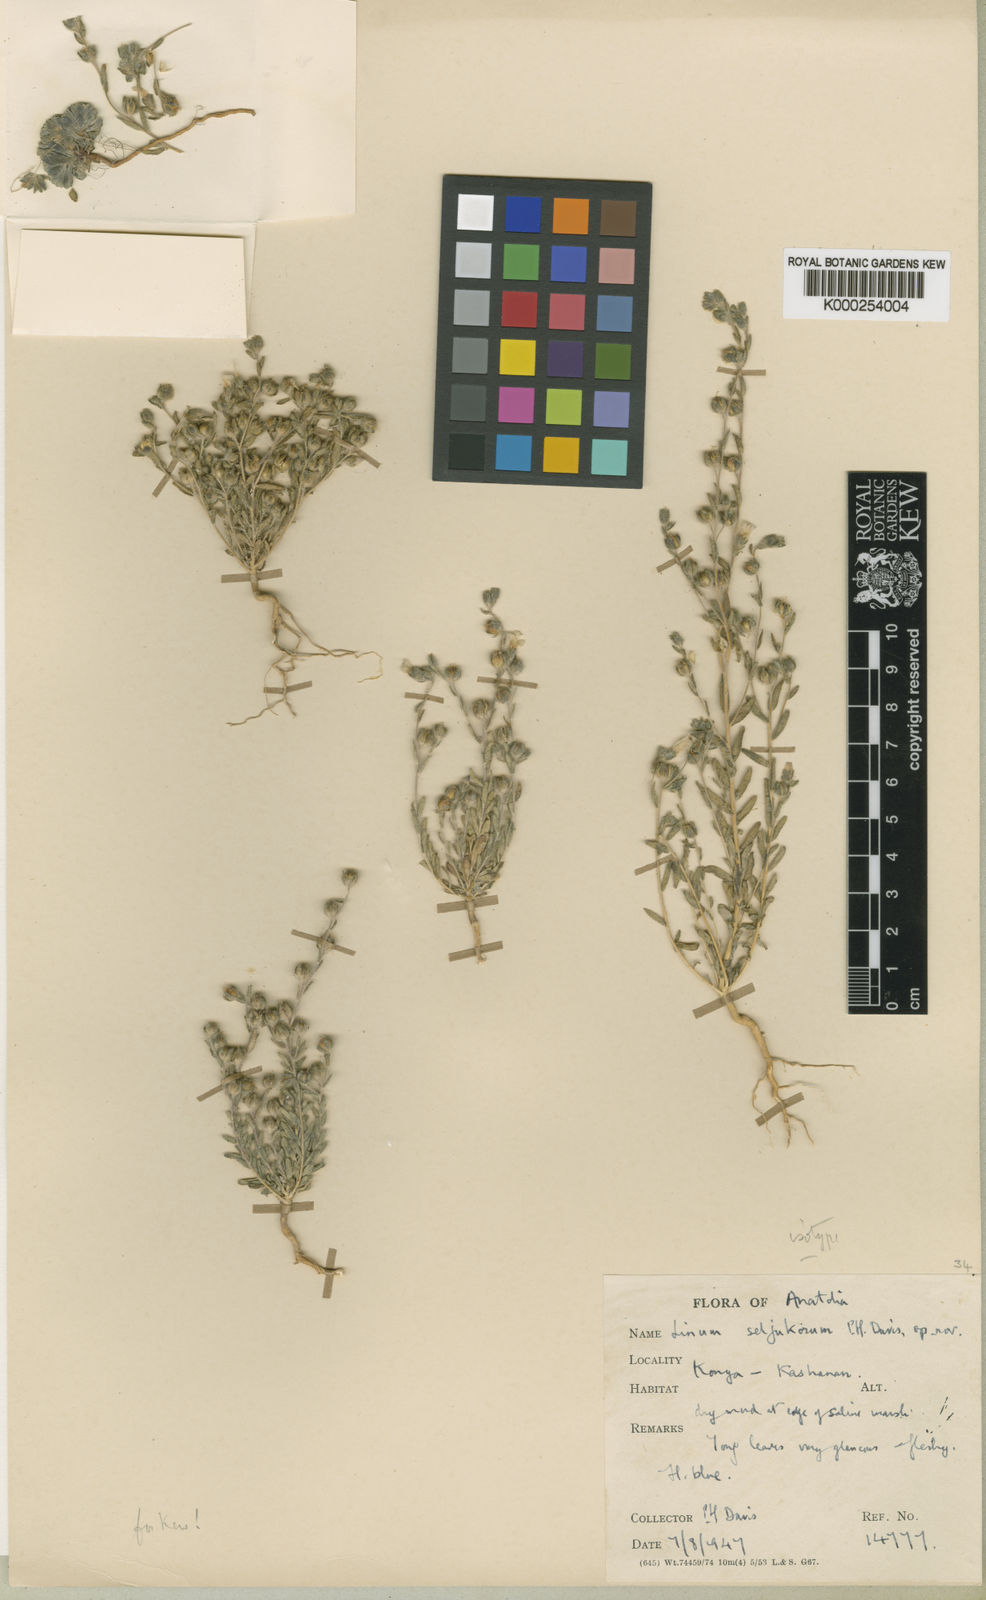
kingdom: Plantae
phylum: Tracheophyta
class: Magnoliopsida
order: Malpighiales
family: Linaceae
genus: Linum
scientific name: Linum seljukorum
